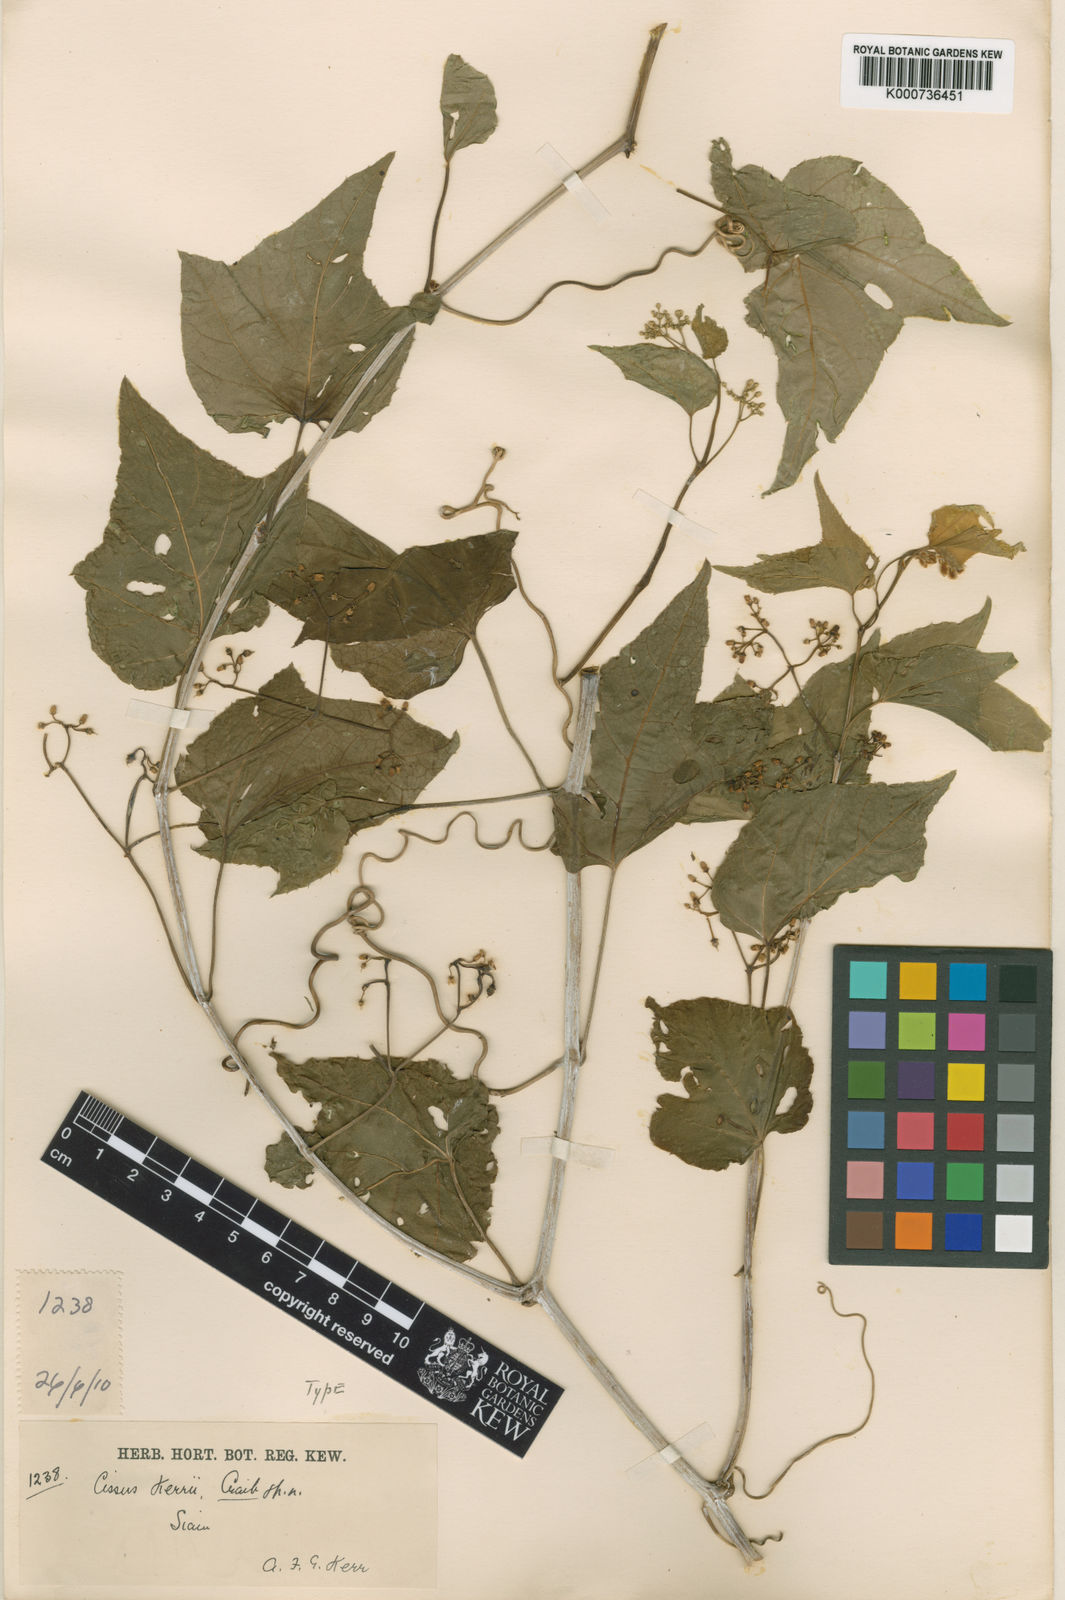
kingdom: Plantae
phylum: Tracheophyta
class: Magnoliopsida
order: Vitales
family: Vitaceae
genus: Cissus
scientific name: Cissus modeccoides
